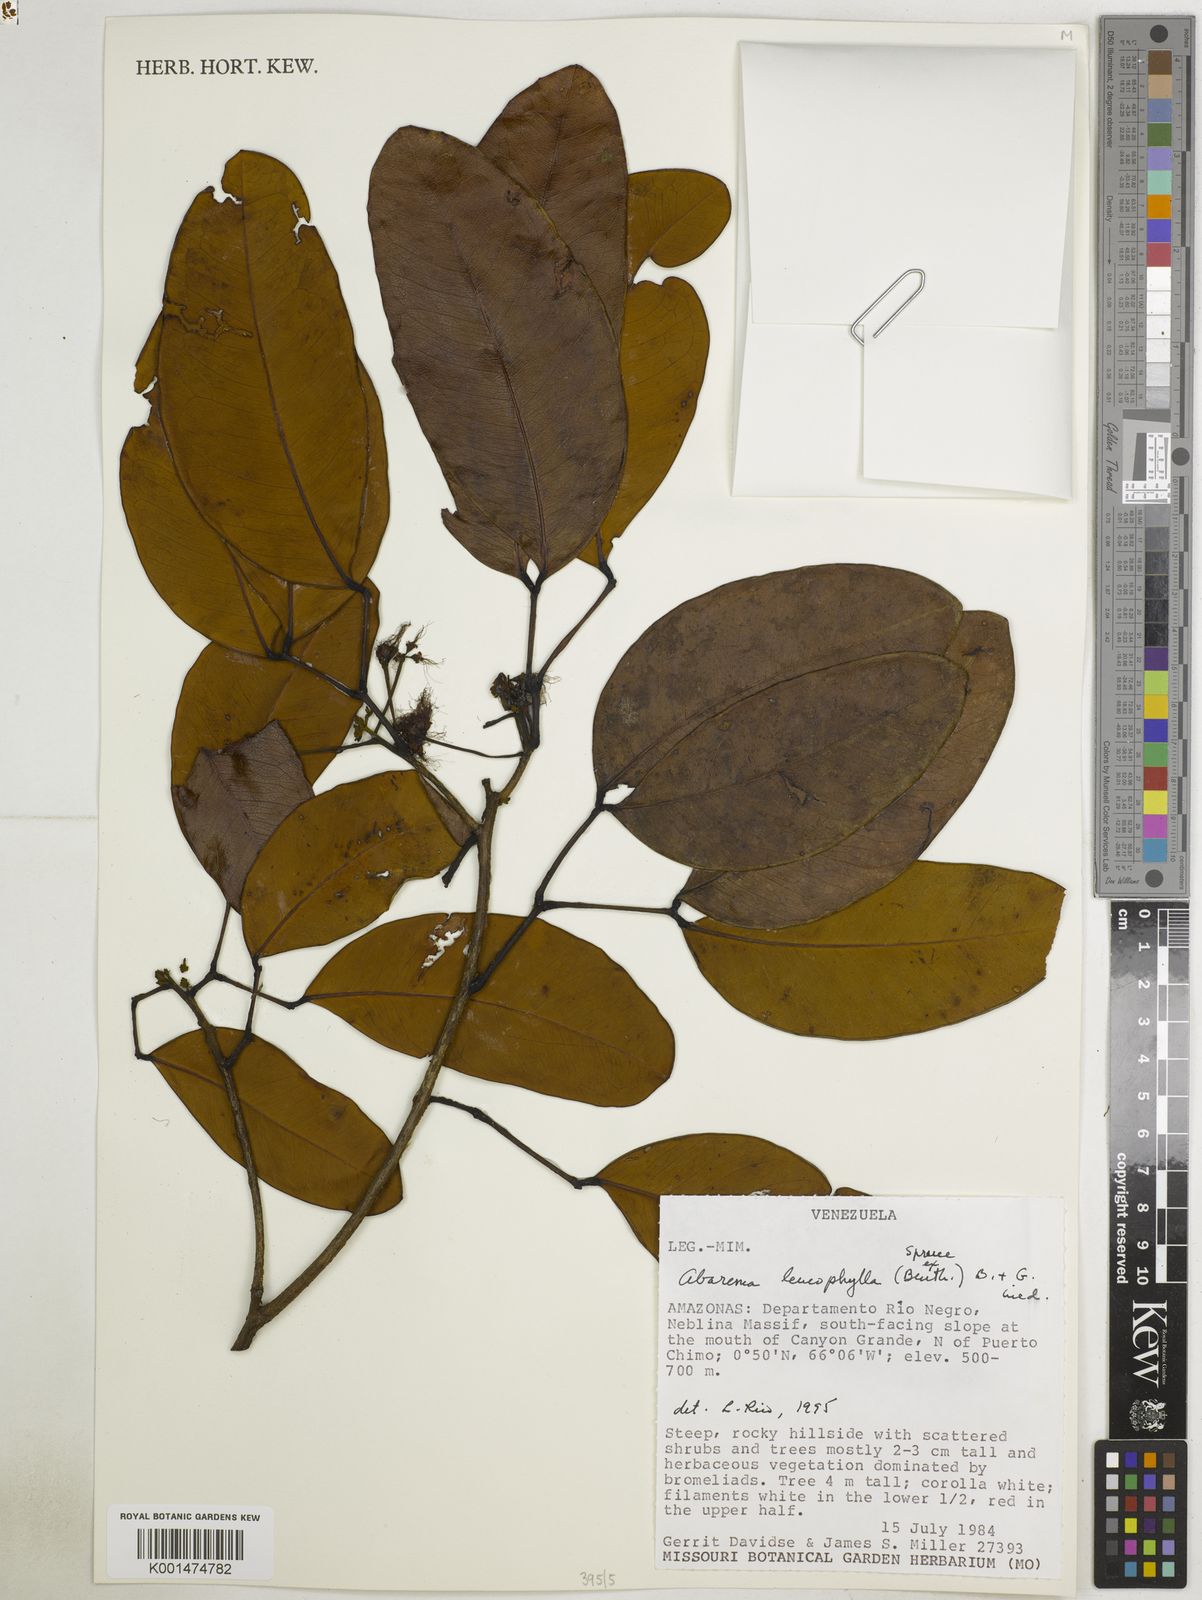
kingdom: Plantae
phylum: Tracheophyta
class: Magnoliopsida
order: Fabales
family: Fabaceae
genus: Jupunba
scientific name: Jupunba leucophylla
